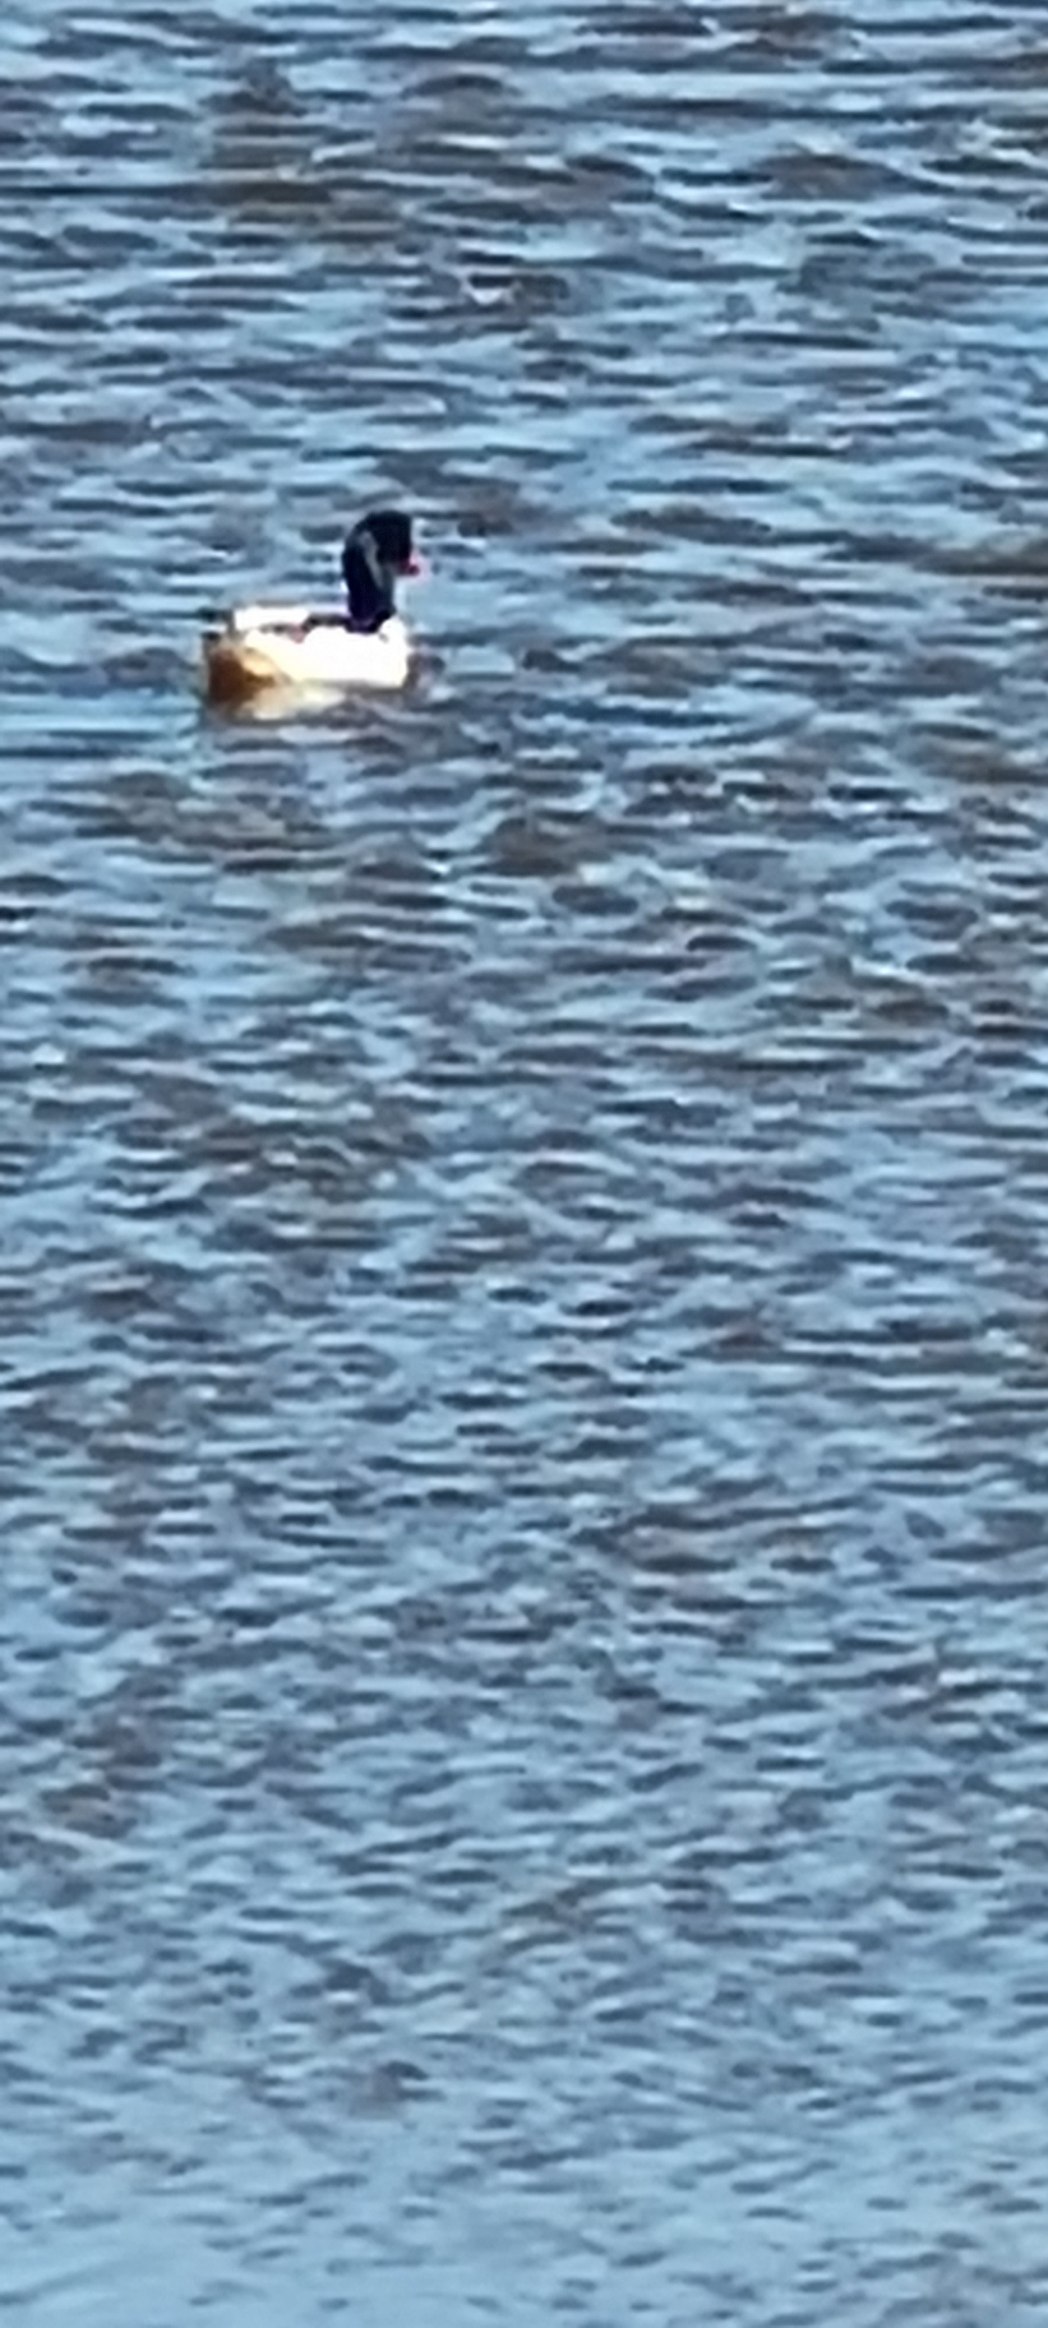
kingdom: Animalia
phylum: Chordata
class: Aves
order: Anseriformes
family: Anatidae
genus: Tadorna
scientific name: Tadorna tadorna
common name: Gravand
